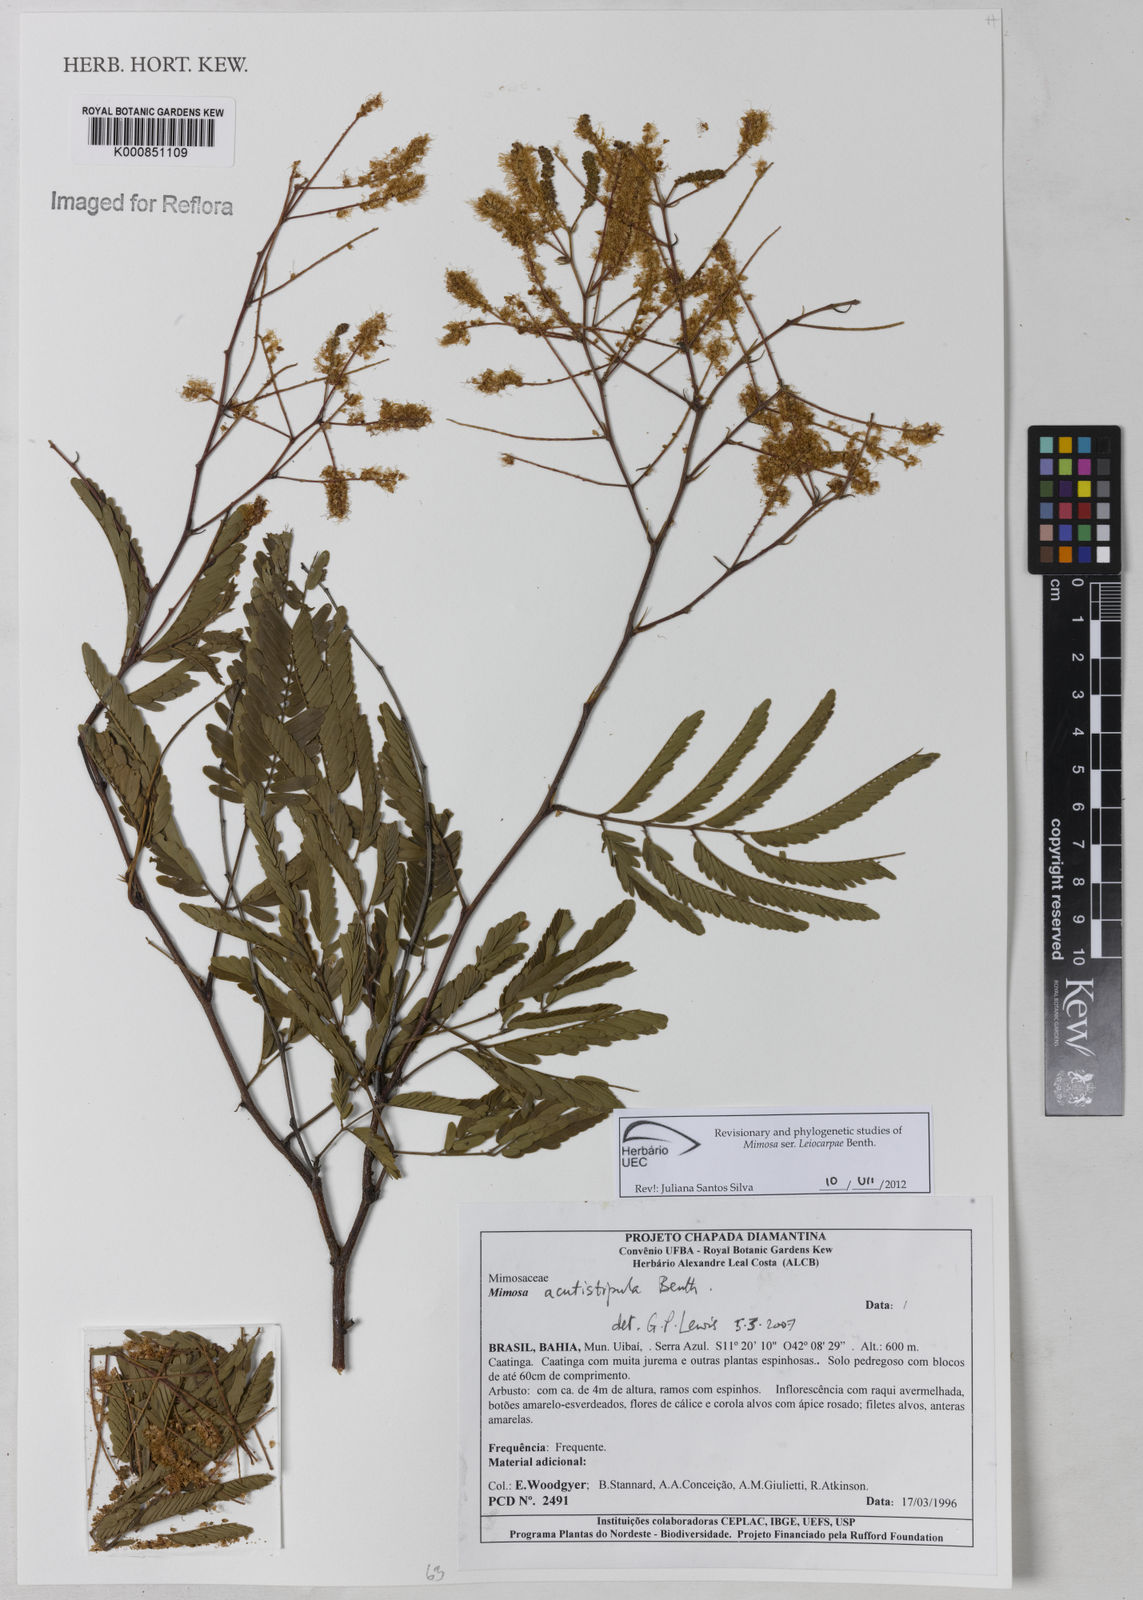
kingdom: Plantae
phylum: Tracheophyta
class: Magnoliopsida
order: Fabales
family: Fabaceae
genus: Mimosa
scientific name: Mimosa acutistipula
